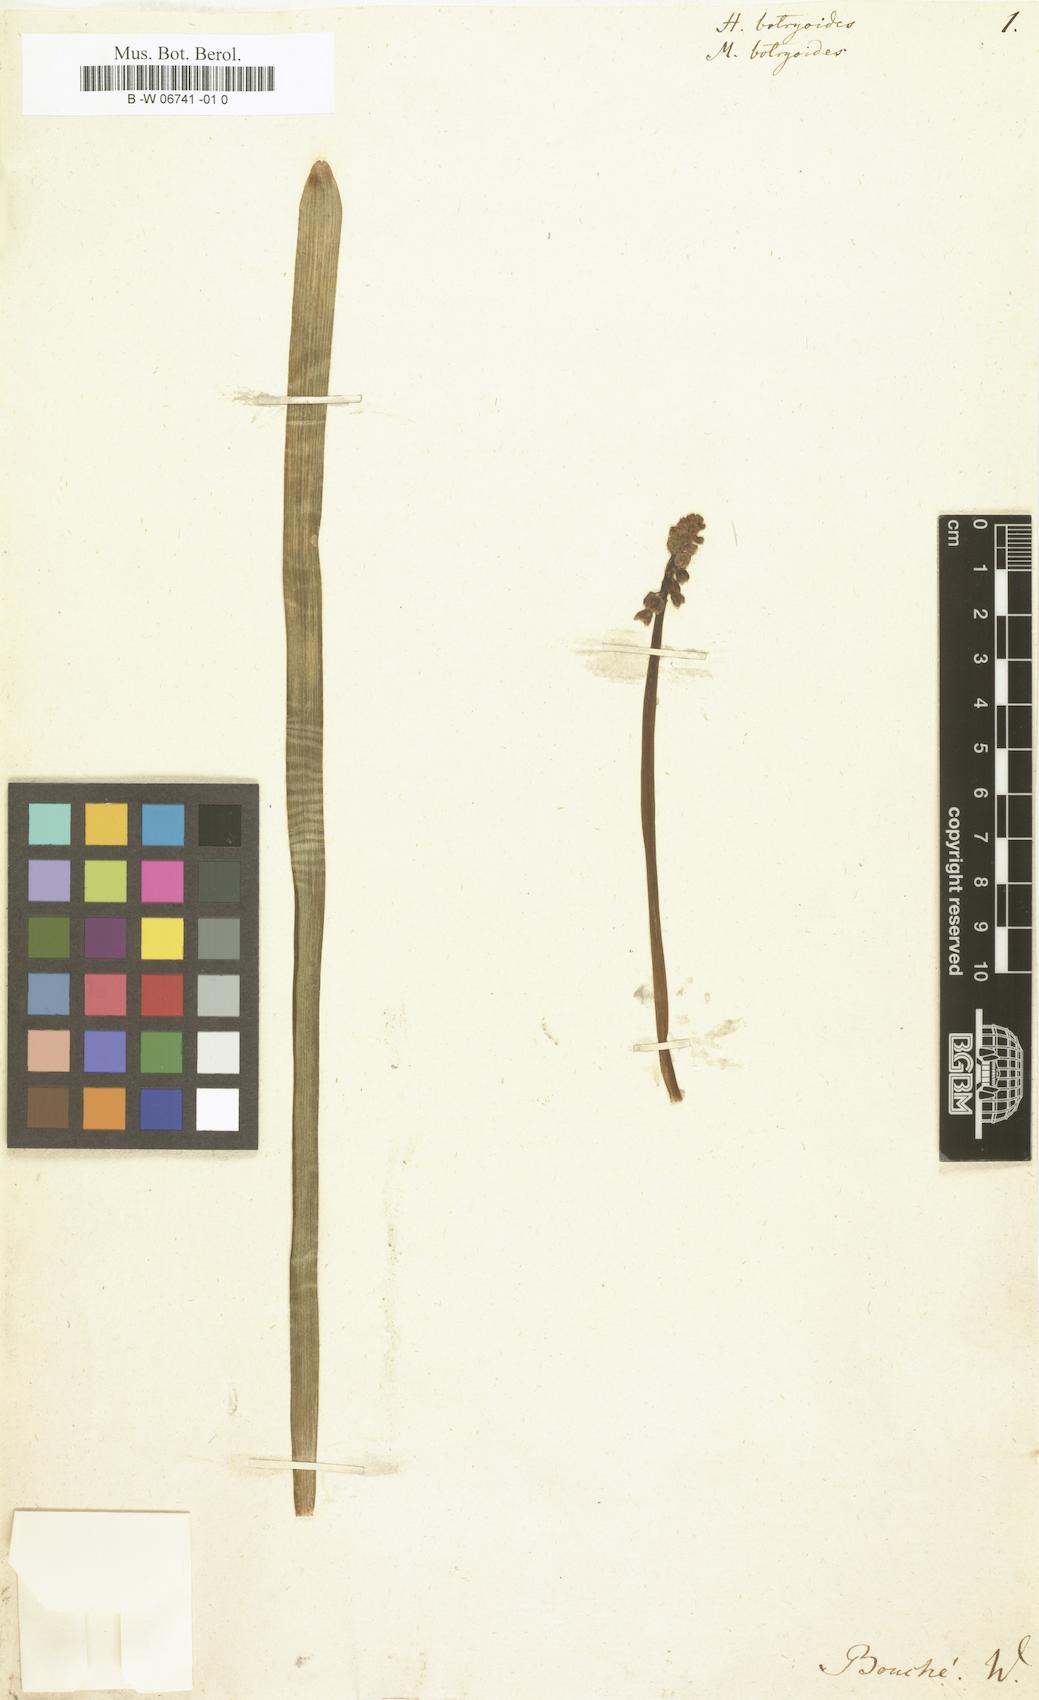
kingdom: Plantae
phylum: Tracheophyta
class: Liliopsida
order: Asparagales
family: Asparagaceae
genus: Muscari
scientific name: Muscari botryoides
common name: Compact grape-hyacinth
